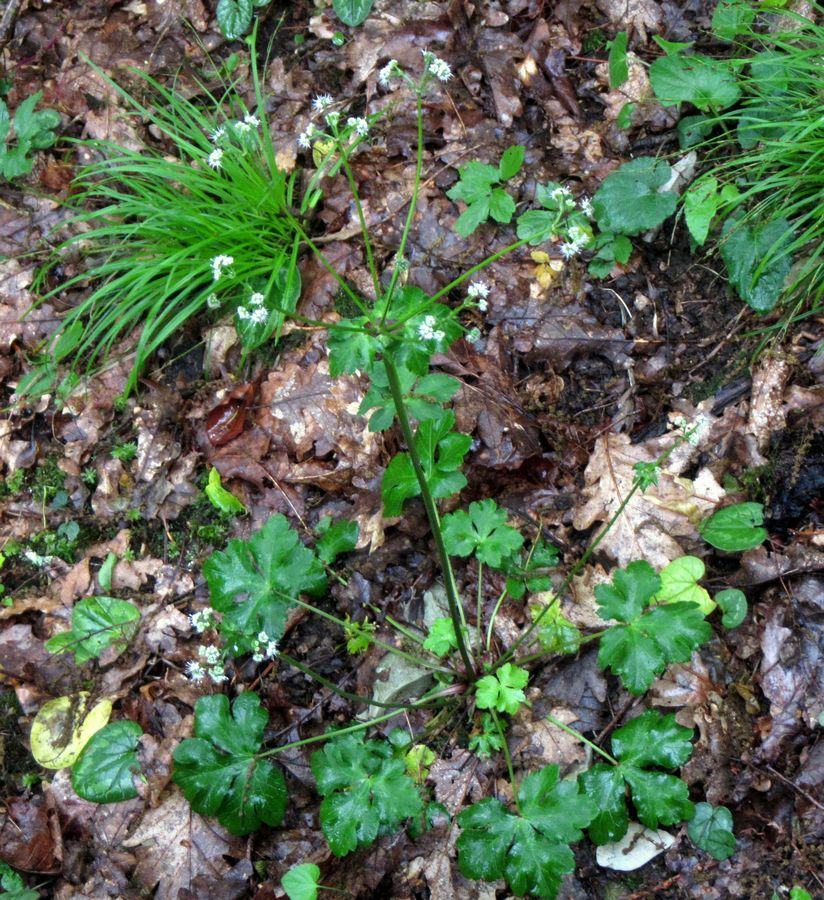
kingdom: Plantae
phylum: Tracheophyta
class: Magnoliopsida
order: Apiales
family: Apiaceae
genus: Sanicula
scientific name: Sanicula europaea
